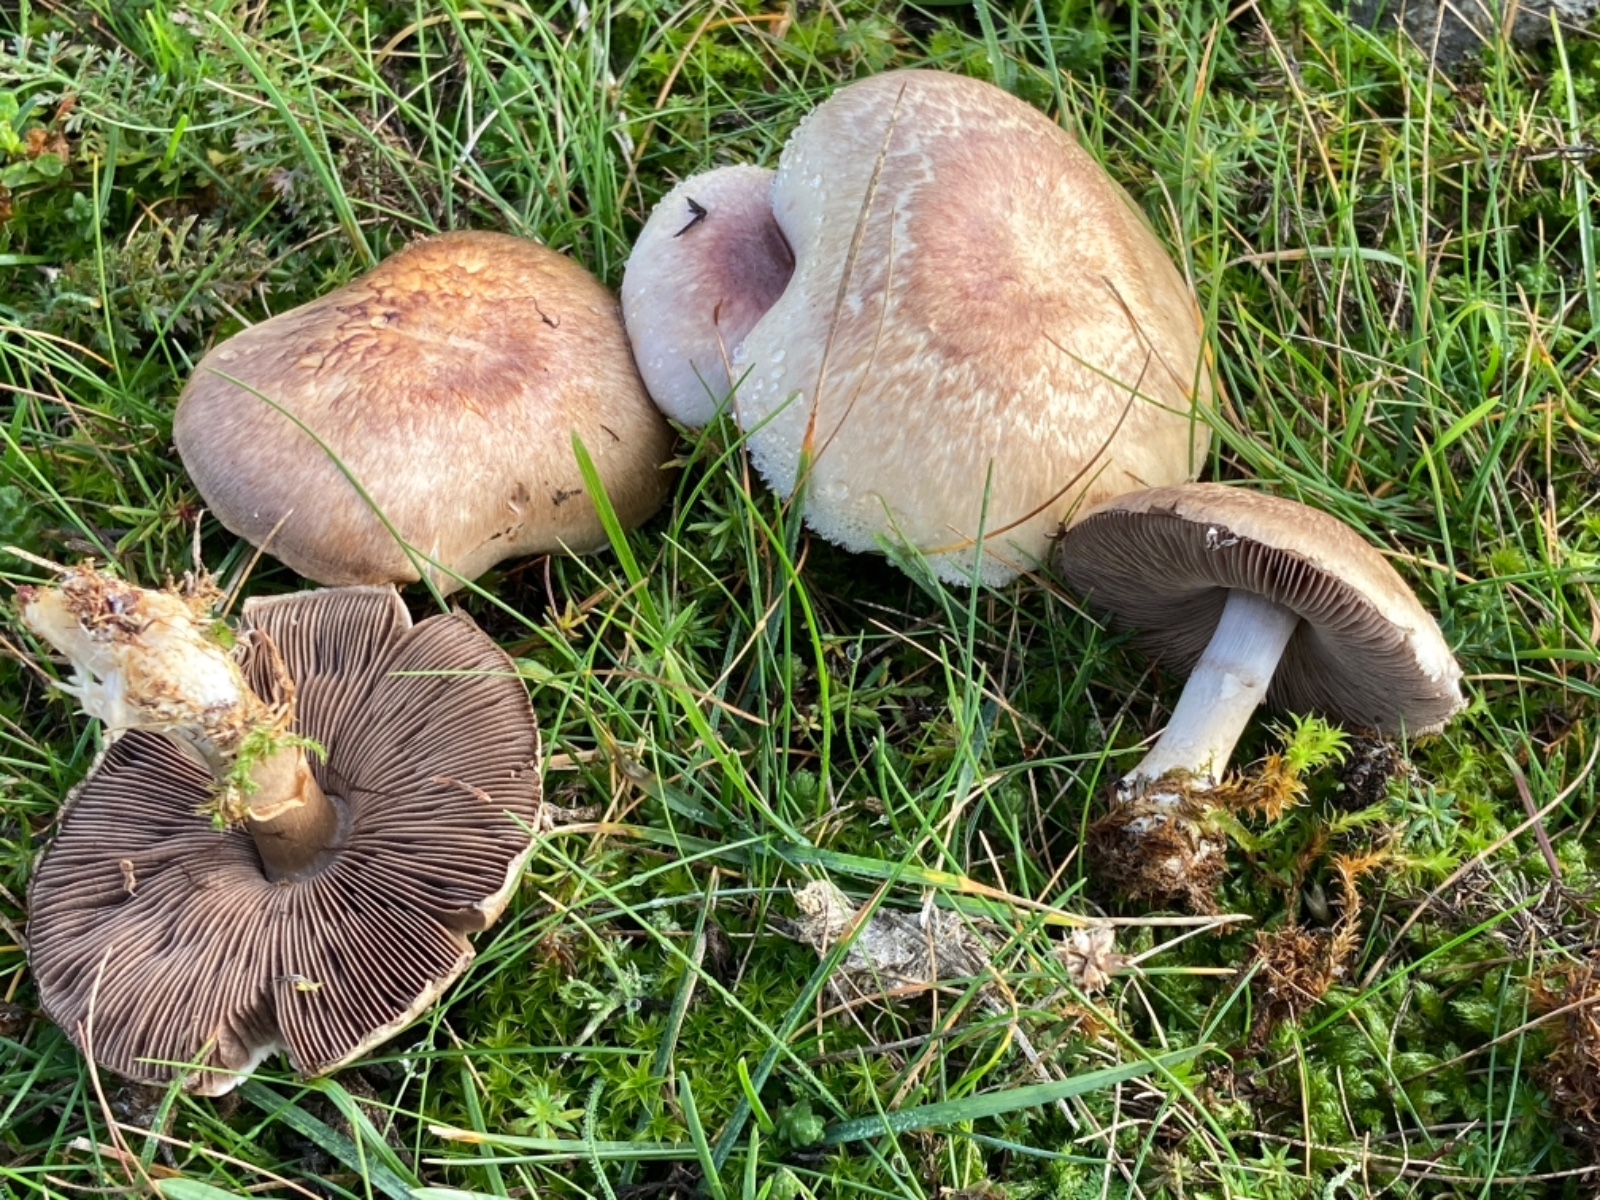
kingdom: Fungi
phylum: Basidiomycota
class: Agaricomycetes
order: Agaricales
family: Agaricaceae
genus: Agaricus
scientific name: Agaricus cupreobrunneus
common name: kobberbrun champignon
